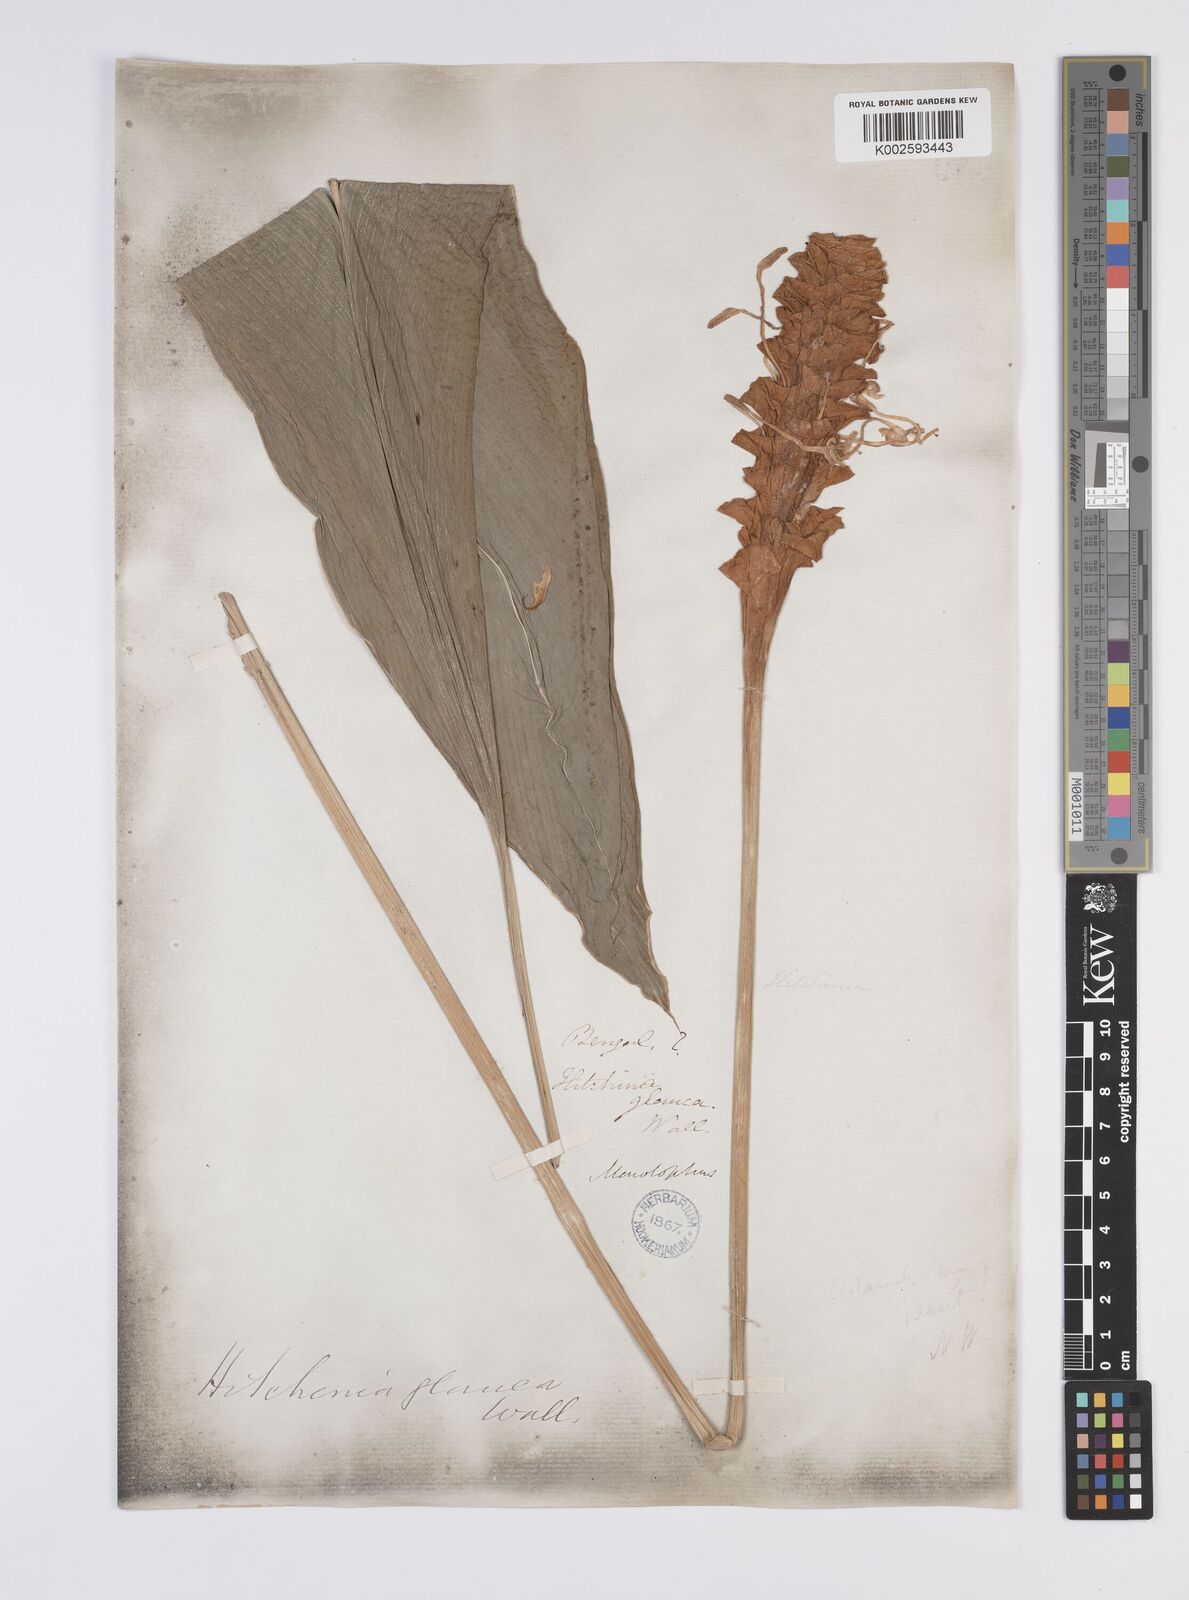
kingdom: Plantae
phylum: Tracheophyta
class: Liliopsida
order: Zingiberales
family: Zingiberaceae
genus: Curcuma
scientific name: Curcuma glauca
